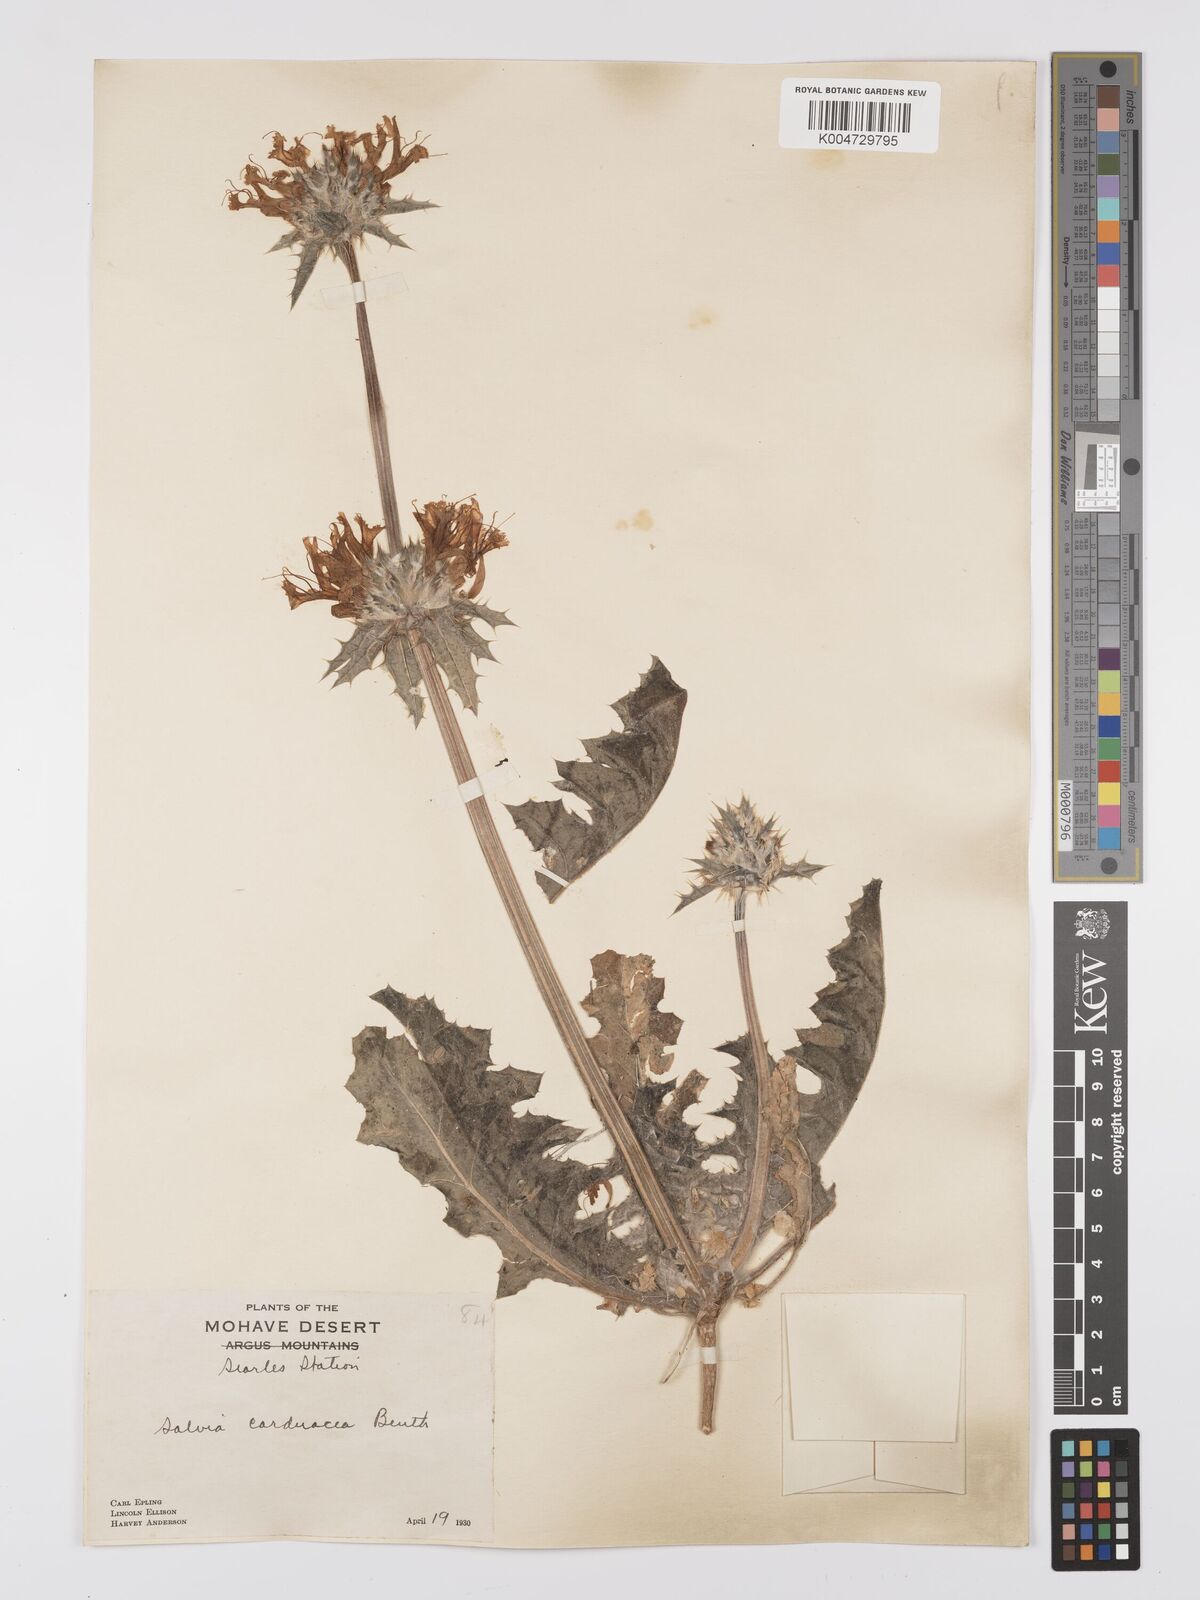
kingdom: Plantae
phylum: Tracheophyta
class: Magnoliopsida
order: Lamiales
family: Lamiaceae
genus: Salvia
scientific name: Salvia carduacea
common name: Thistle sage
